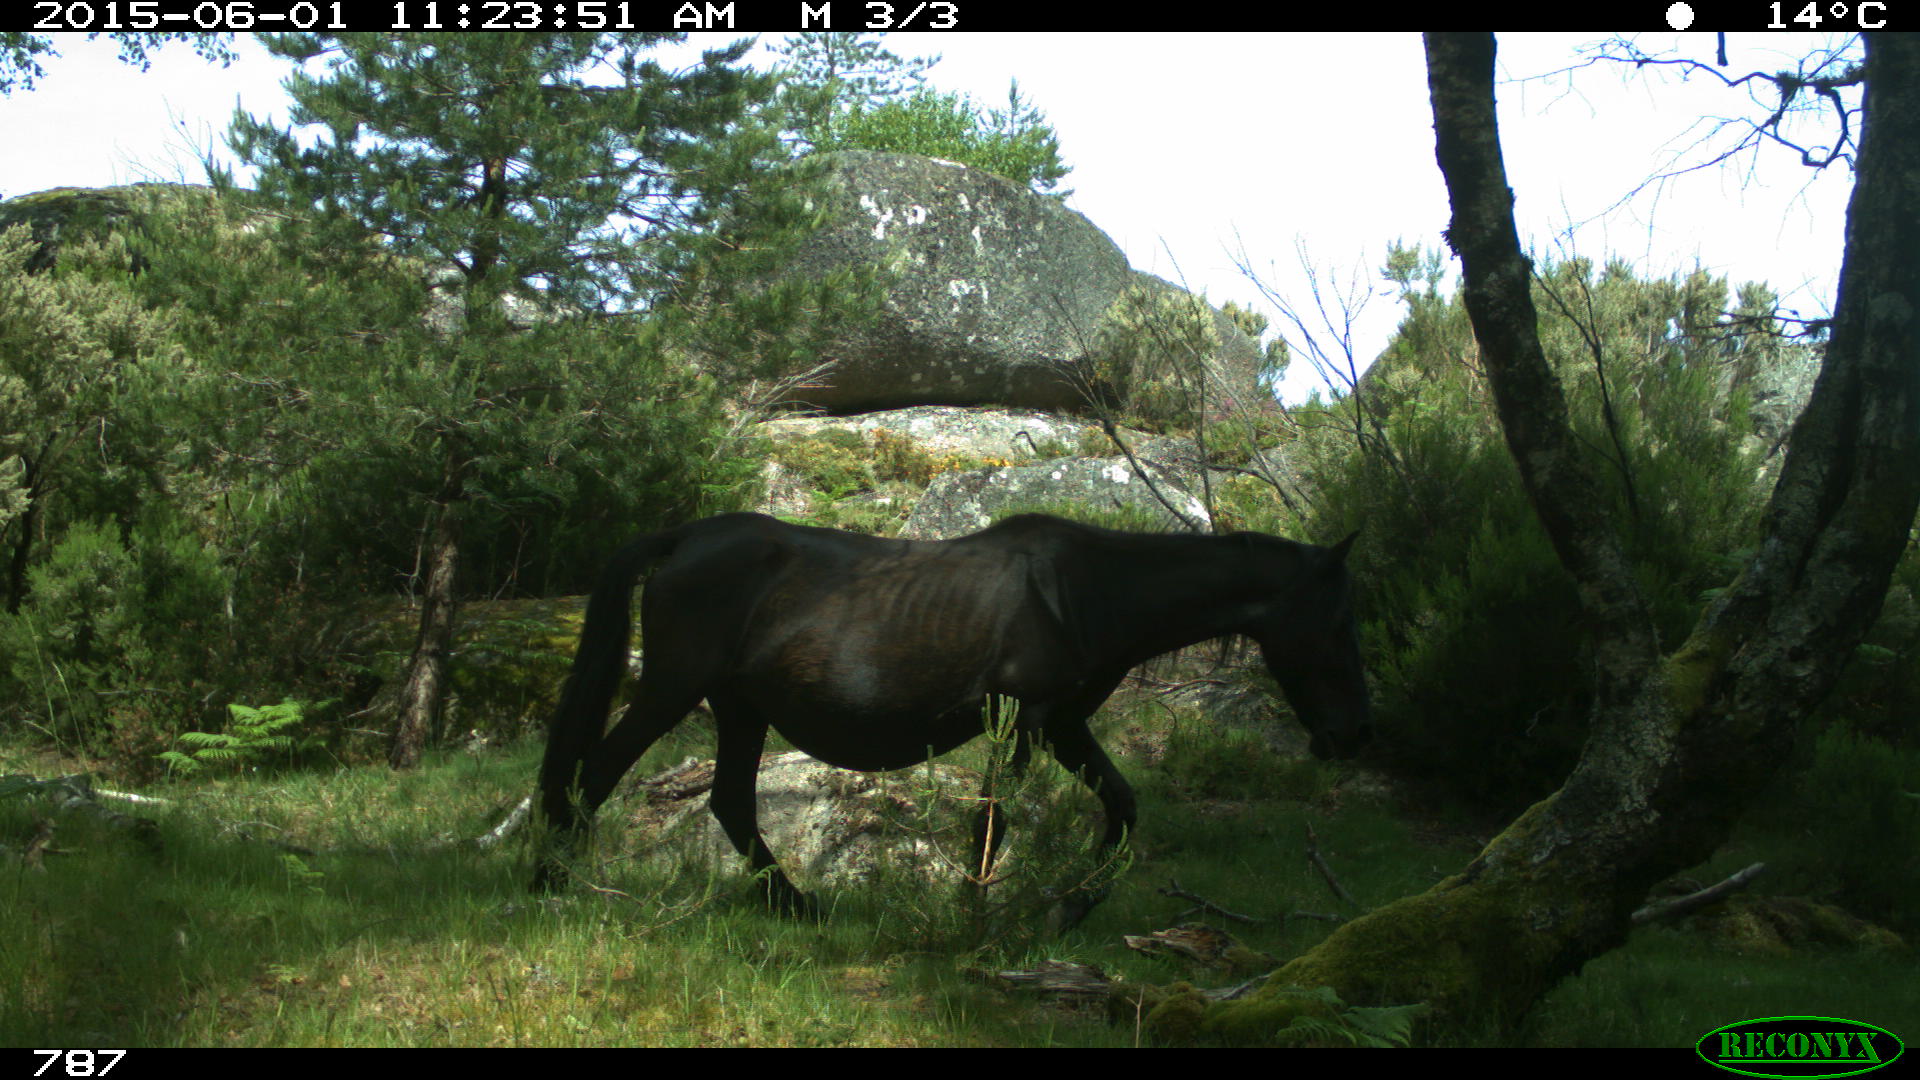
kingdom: Animalia
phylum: Chordata
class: Mammalia
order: Perissodactyla
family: Equidae
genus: Equus
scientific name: Equus caballus
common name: Horse
